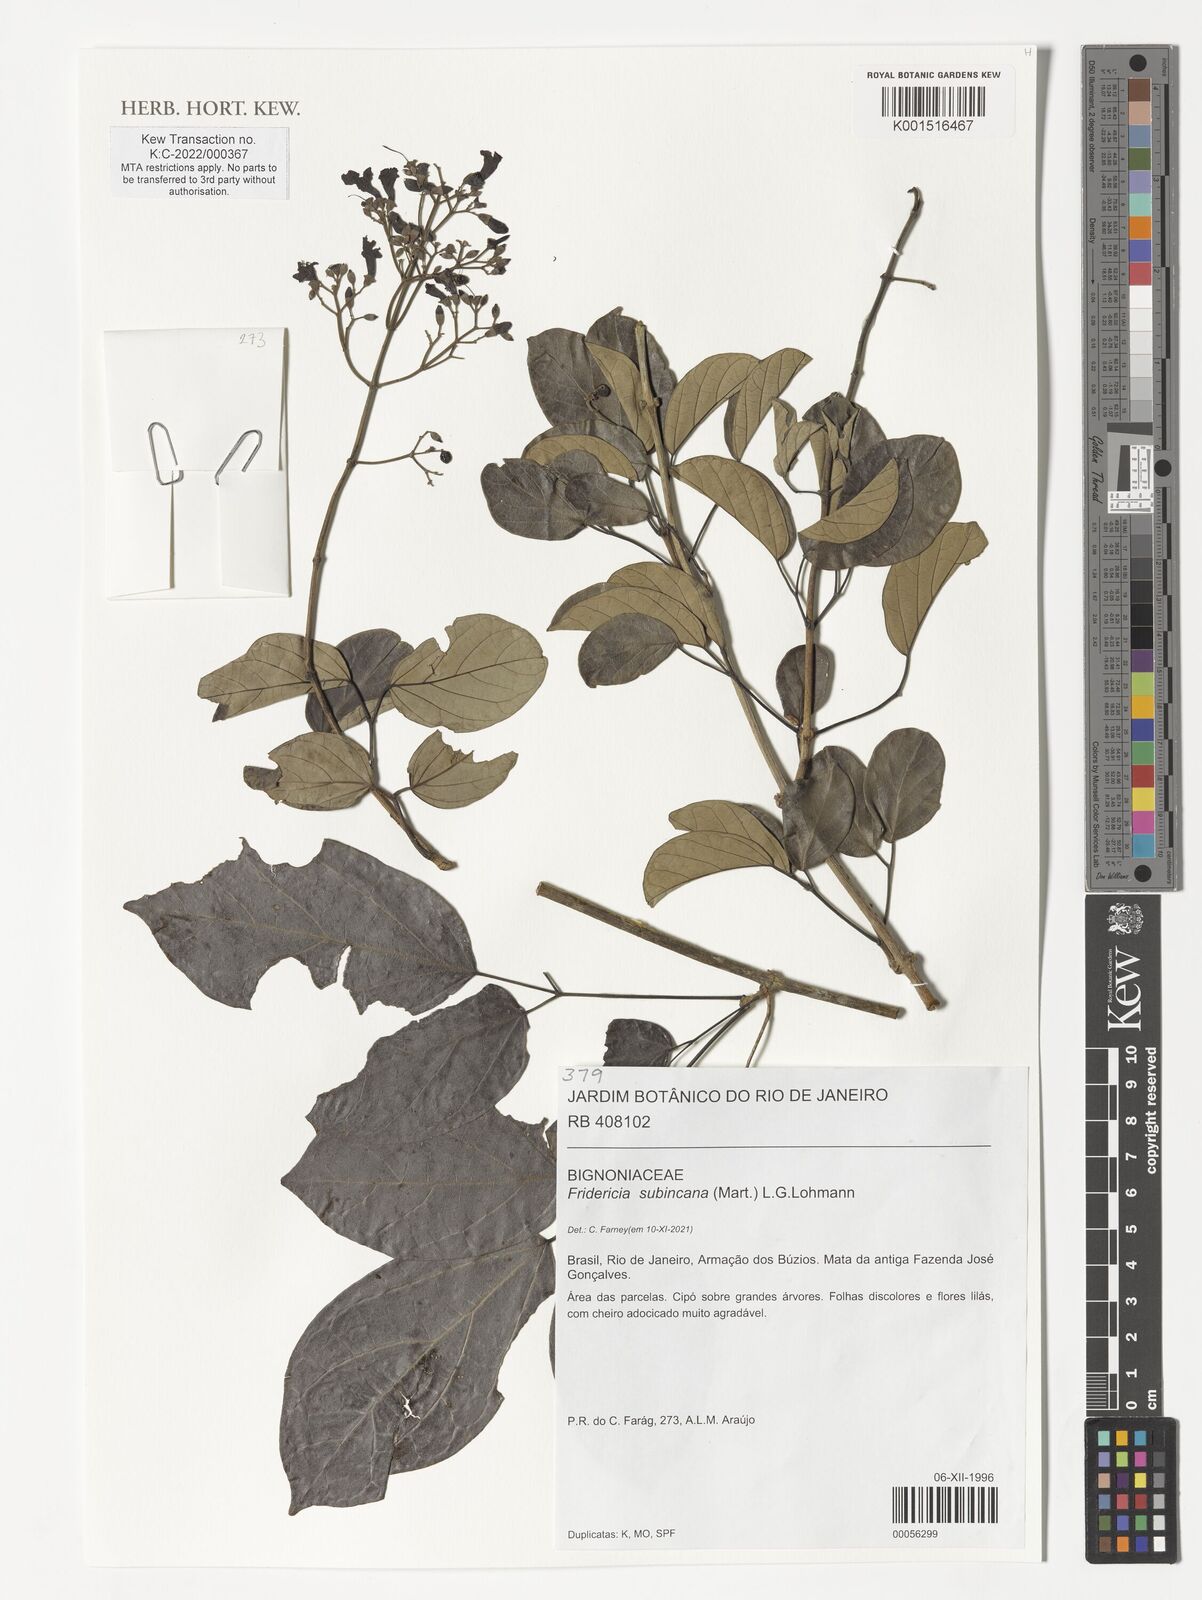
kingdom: Plantae
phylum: Tracheophyta
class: Magnoliopsida
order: Lamiales
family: Bignoniaceae
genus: Fridericia
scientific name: Fridericia subincana
